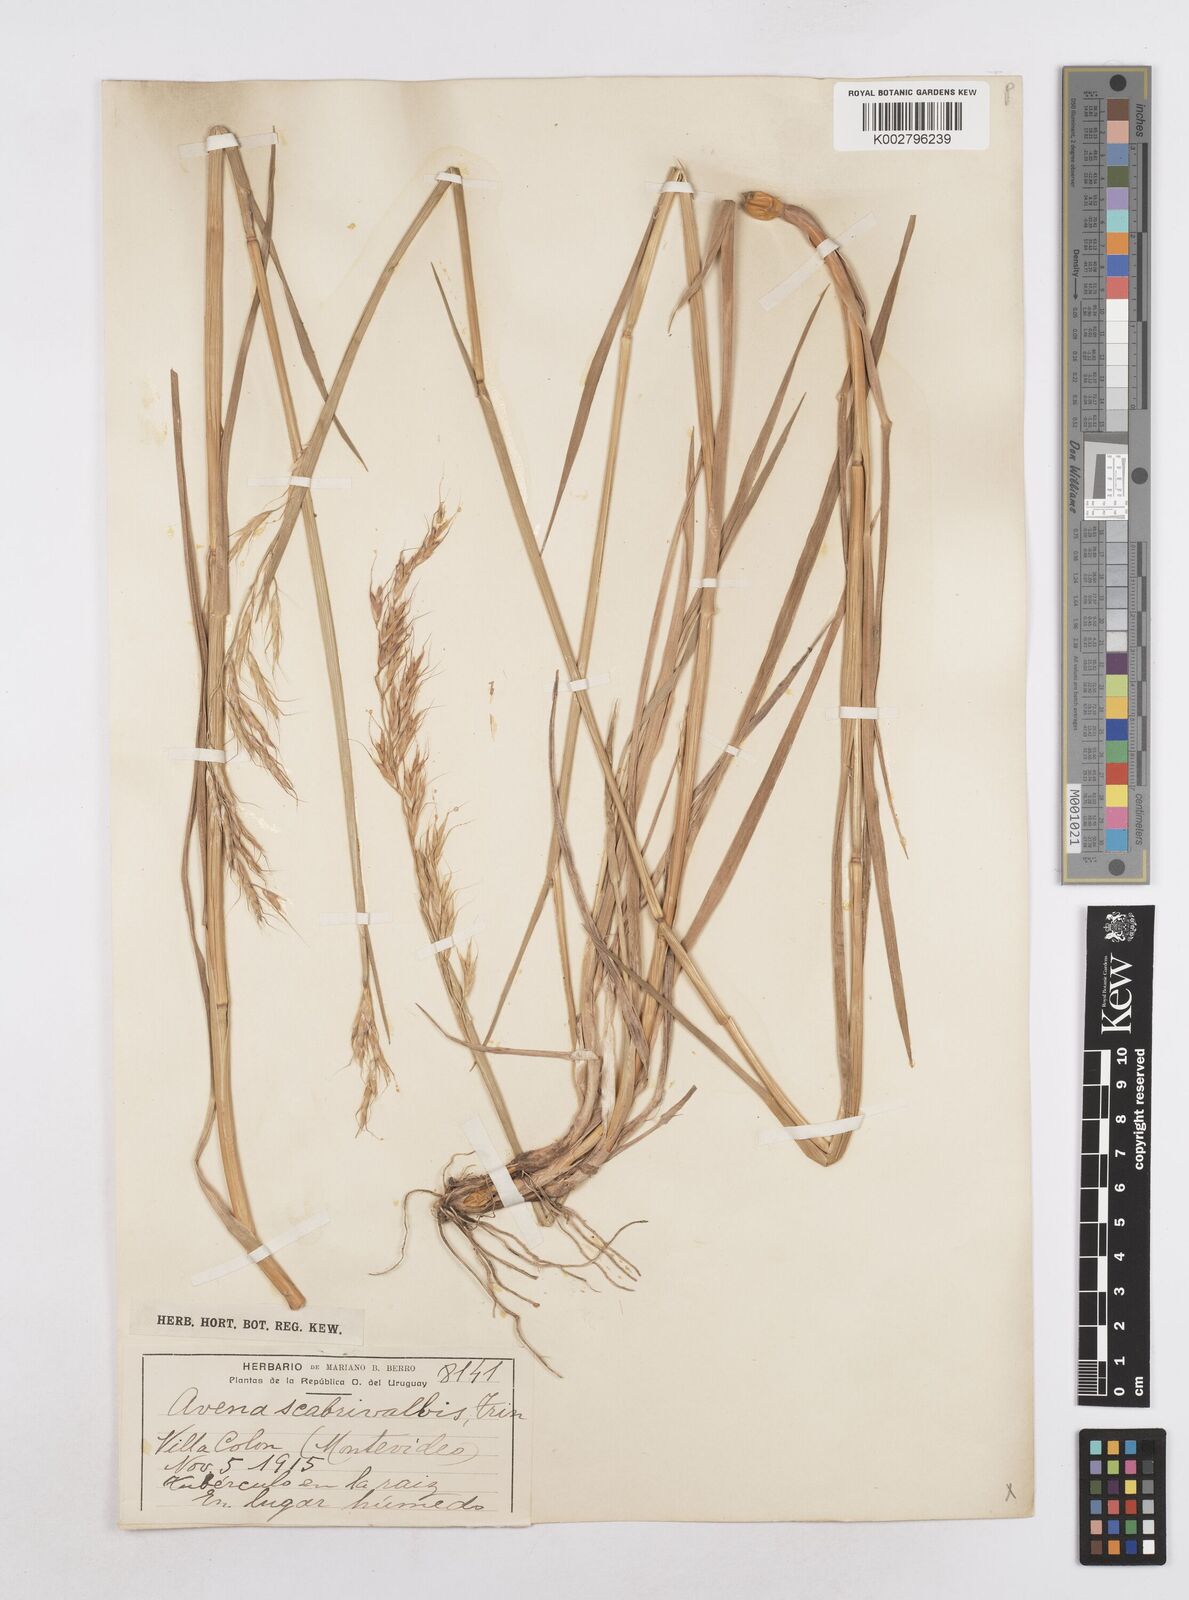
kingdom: Plantae
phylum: Tracheophyta
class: Liliopsida
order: Poales
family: Poaceae
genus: Helictotrichon
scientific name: Helictotrichon
